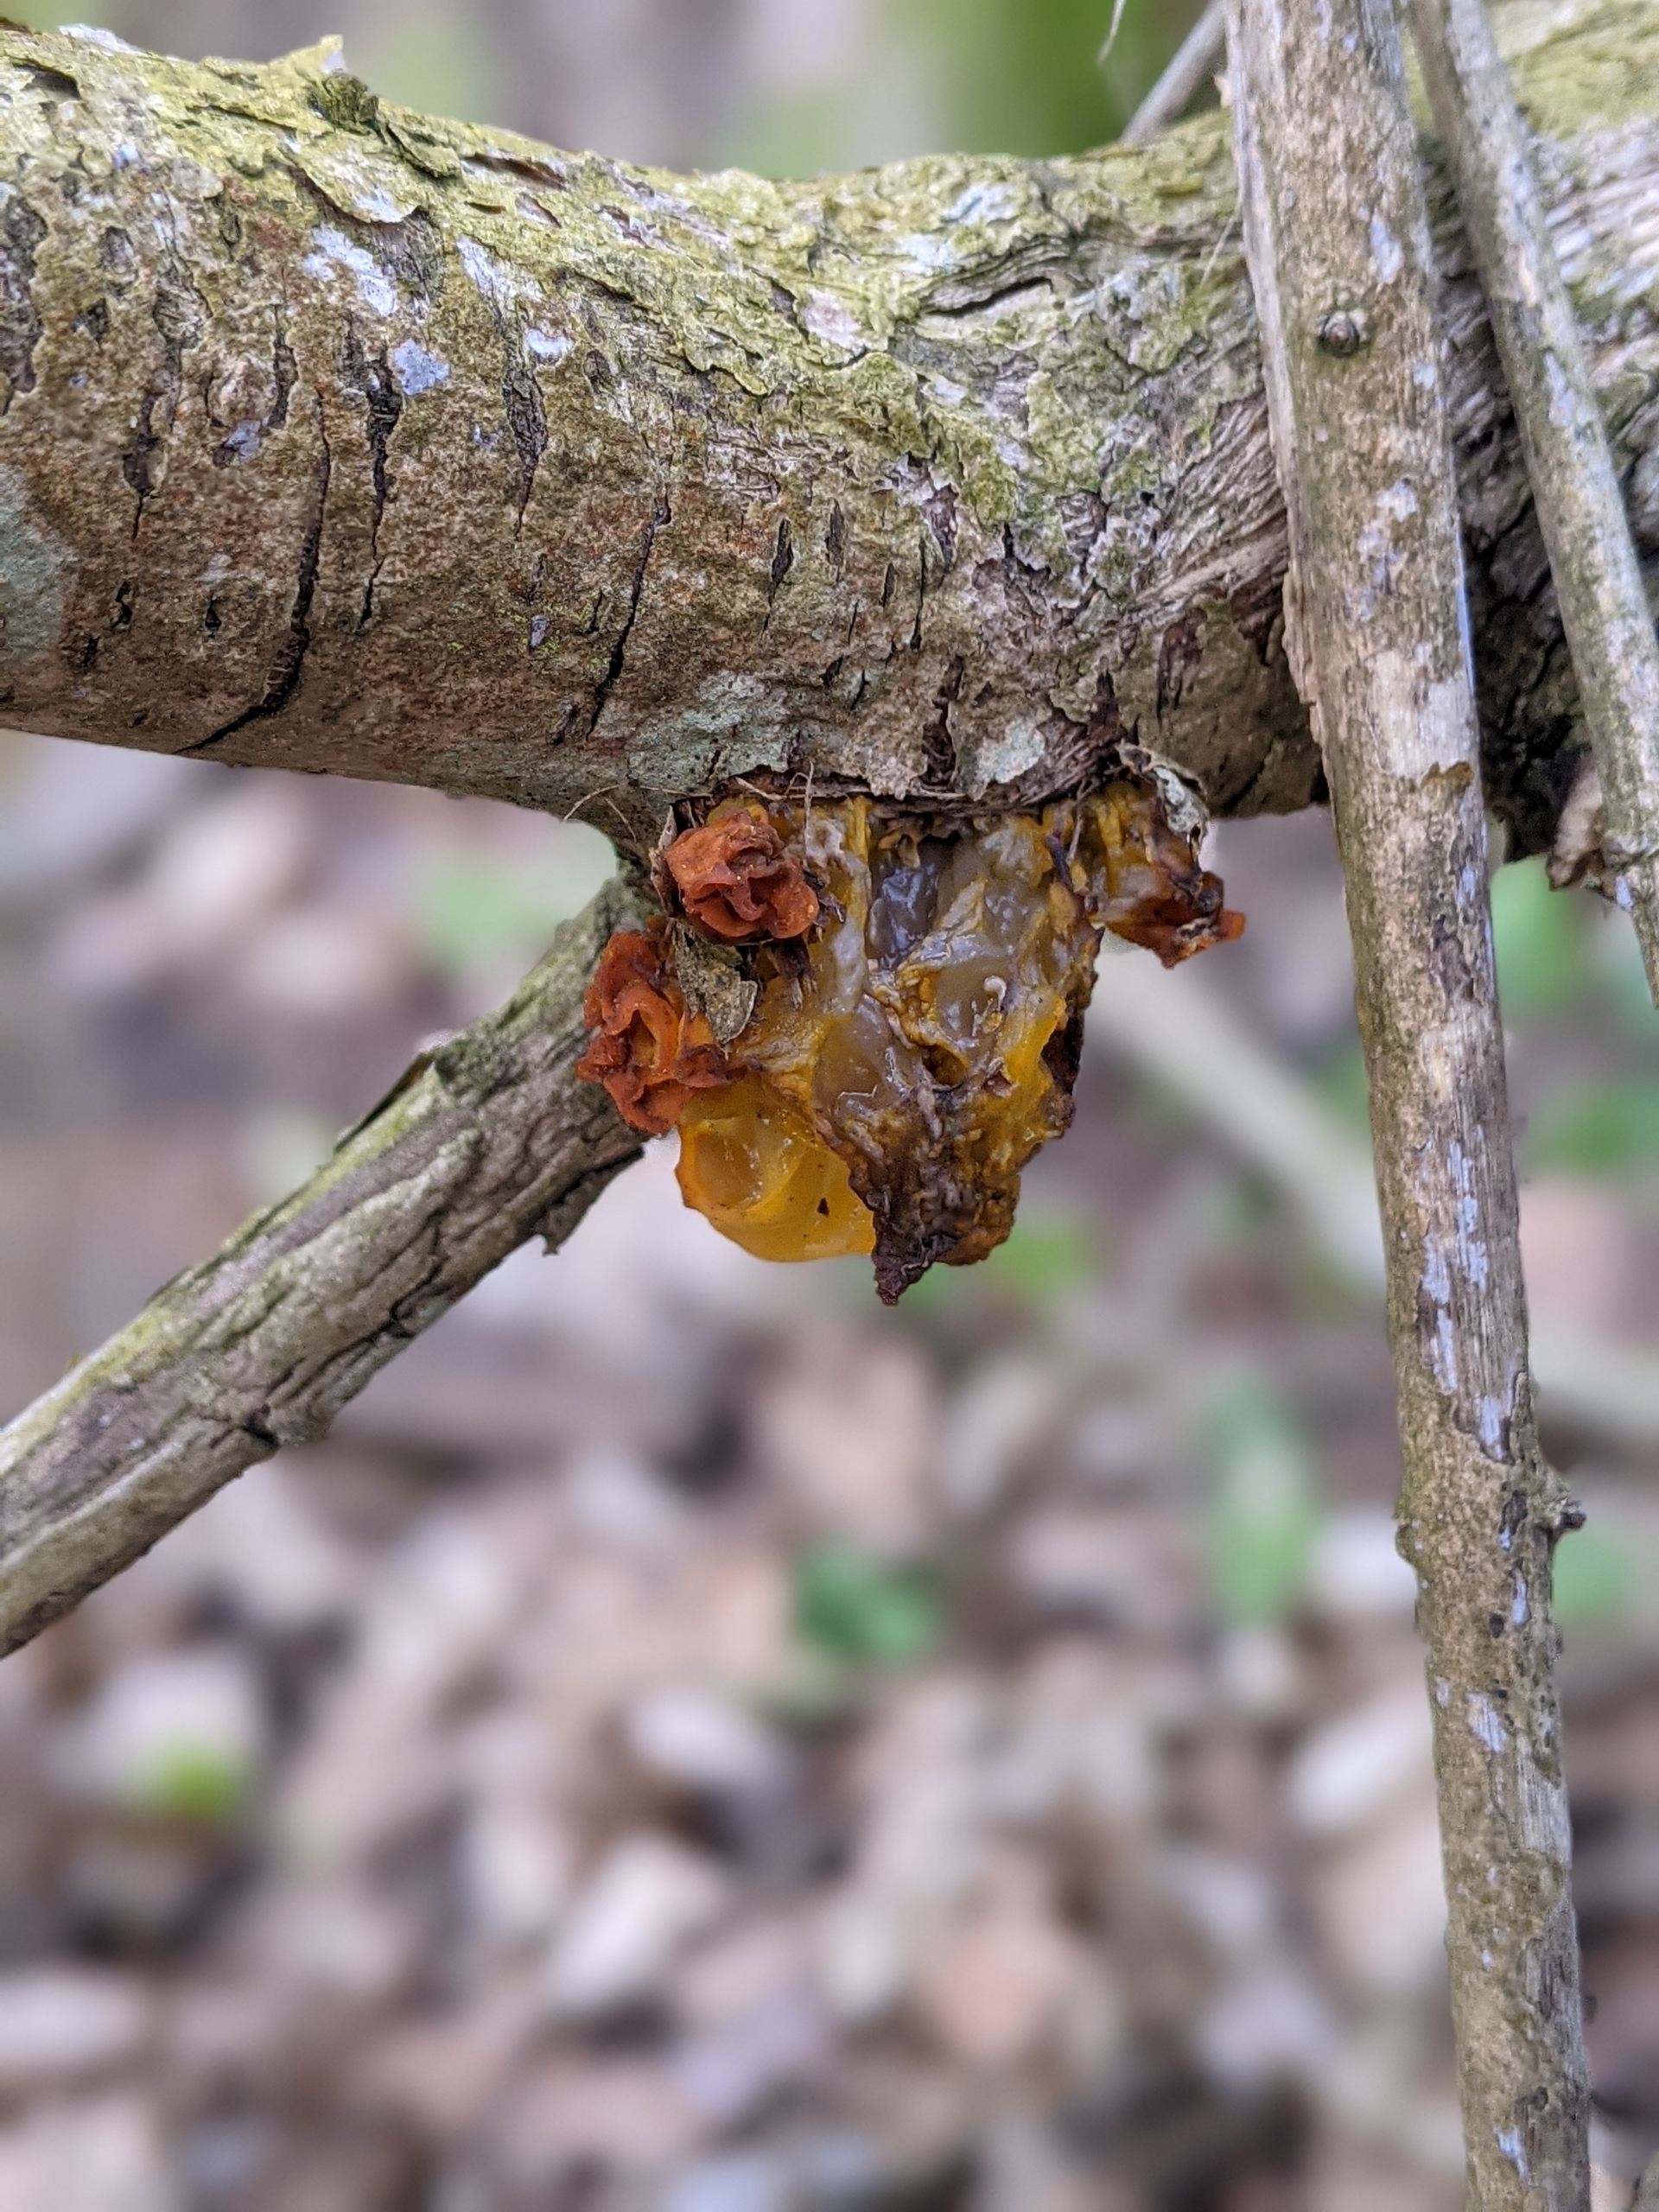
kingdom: Fungi
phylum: Basidiomycota
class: Tremellomycetes
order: Tremellales
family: Tremellaceae
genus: Tremella
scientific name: Tremella mesenterica
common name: Gul bævresvamp
